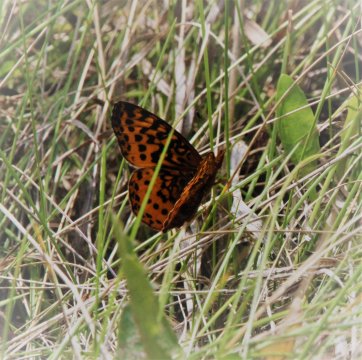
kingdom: Animalia
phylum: Arthropoda
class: Insecta
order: Lepidoptera
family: Nymphalidae
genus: Clossiana
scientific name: Clossiana toddi
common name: Meadow Fritillary
